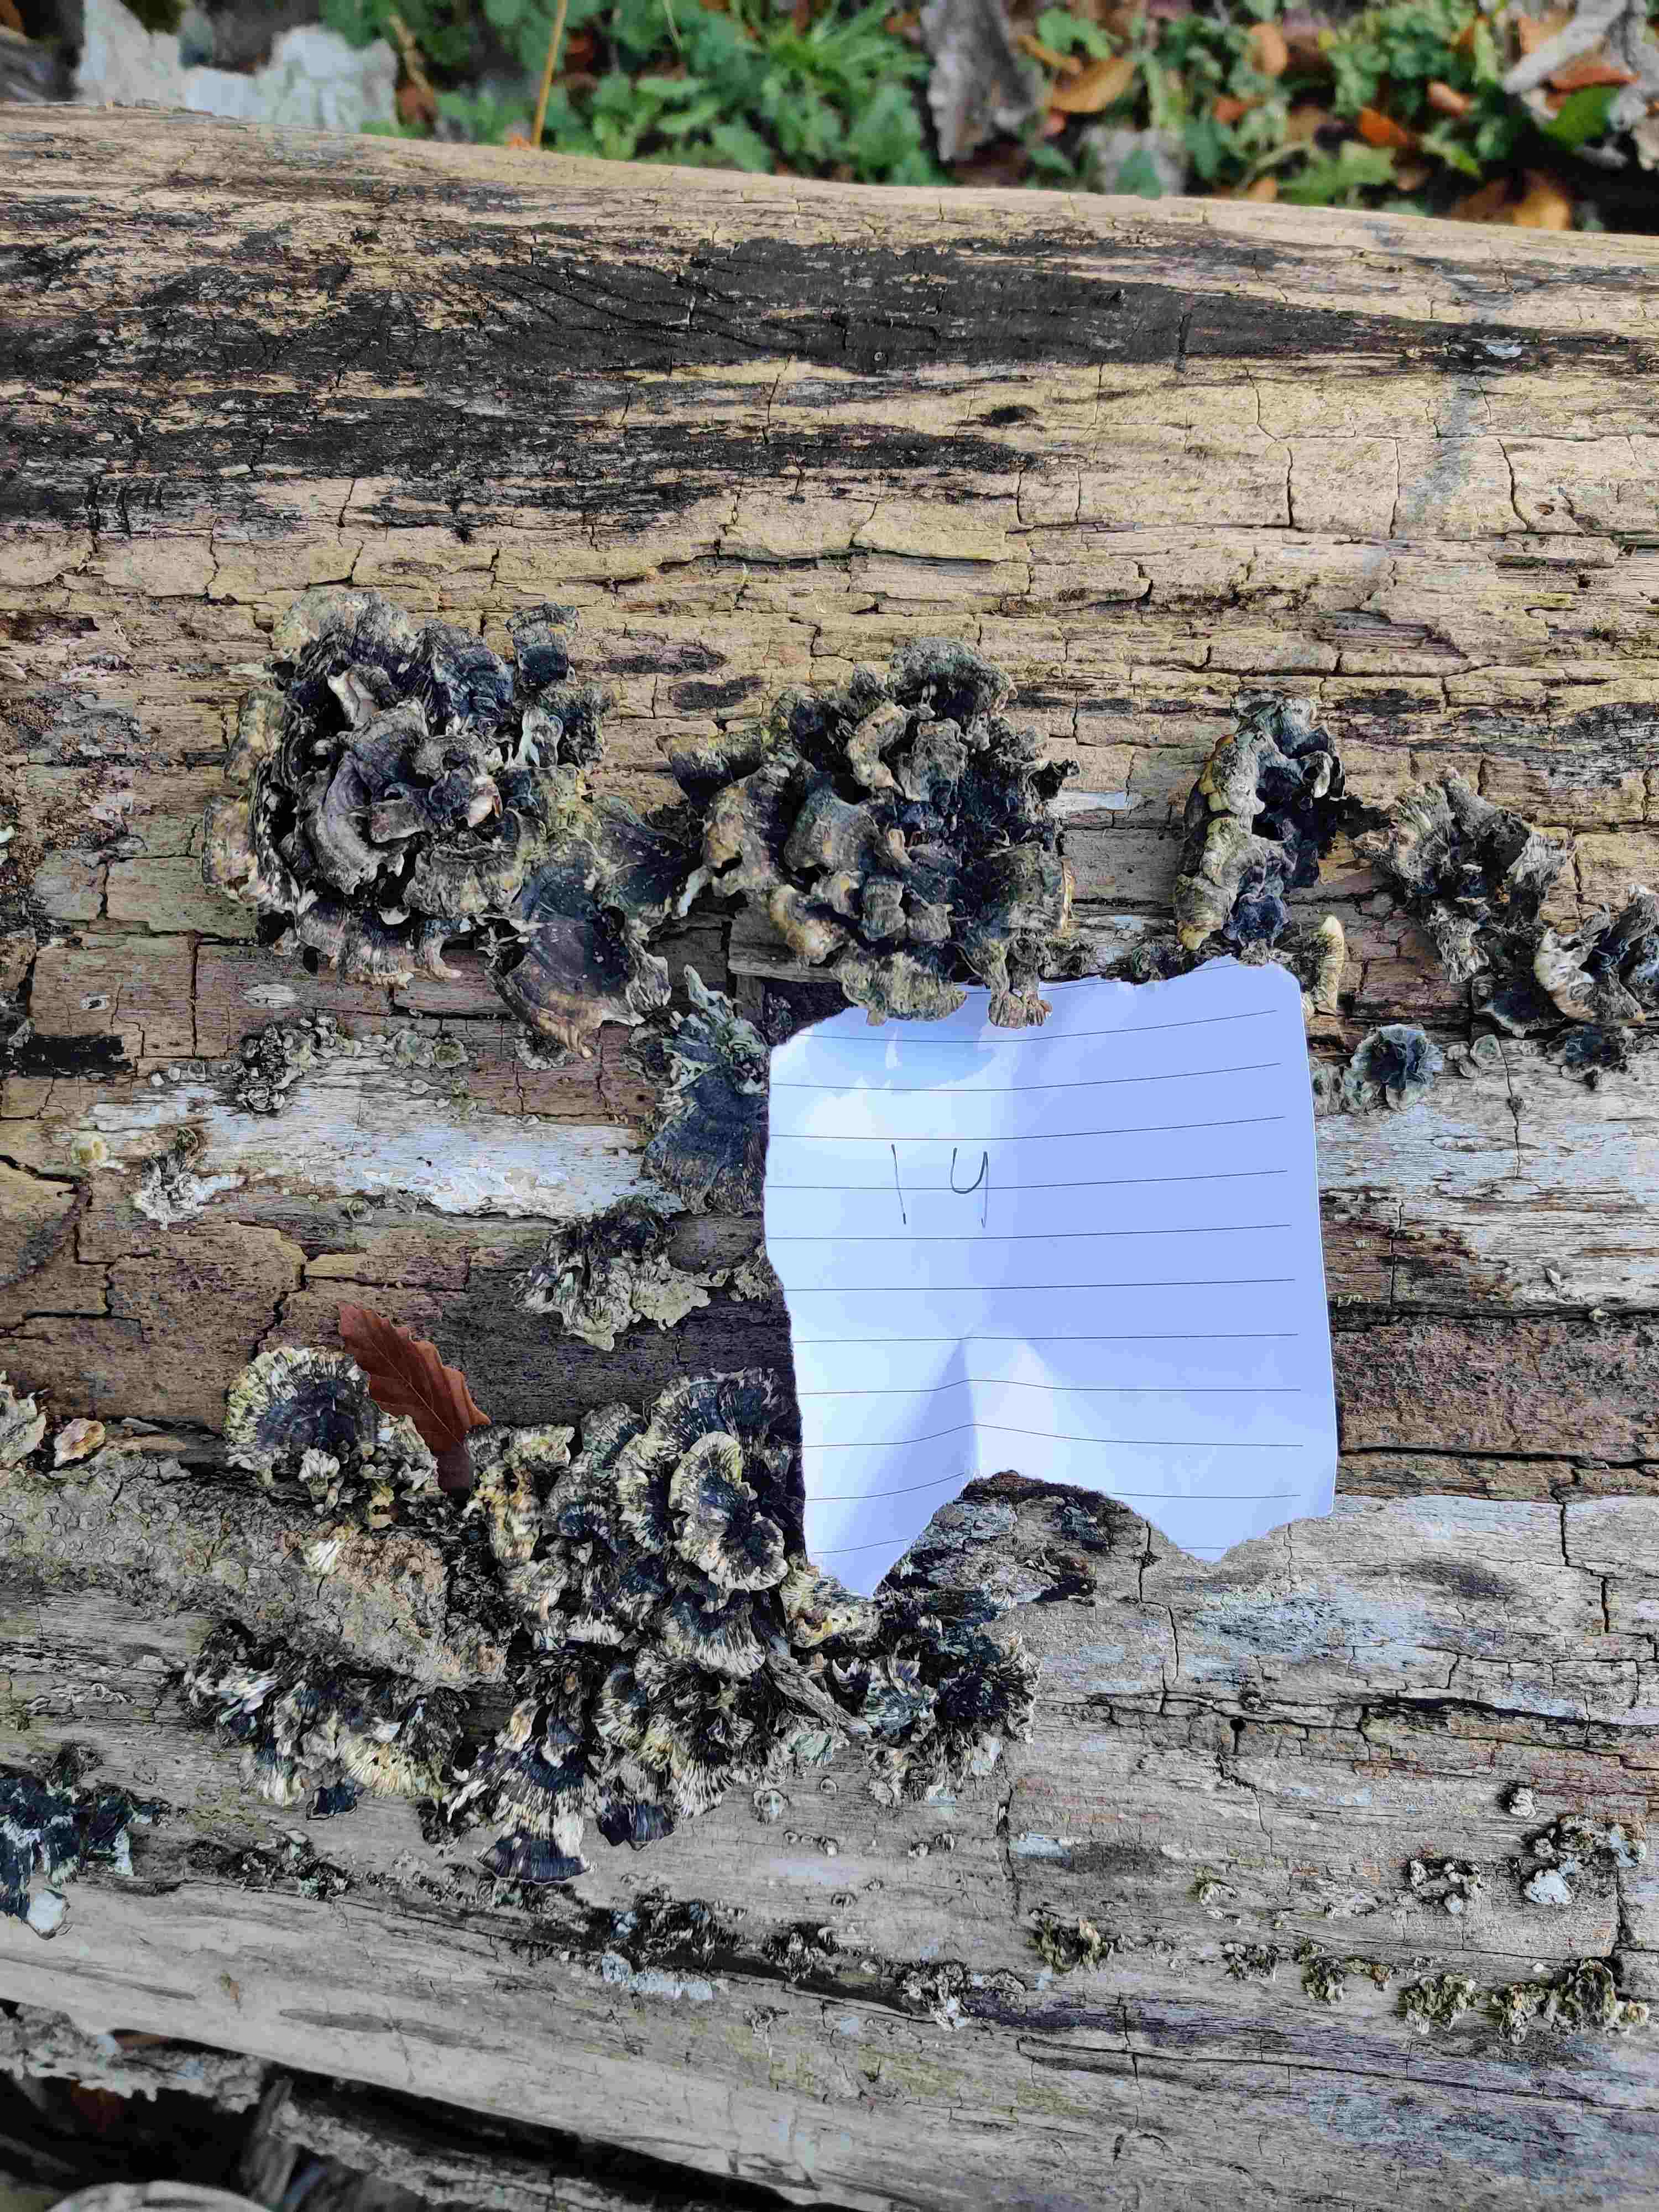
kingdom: Fungi
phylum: Basidiomycota
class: Agaricomycetes
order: Polyporales
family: Polyporaceae
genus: Trametes
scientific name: Trametes versicolor
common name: broget læderporesvamp
